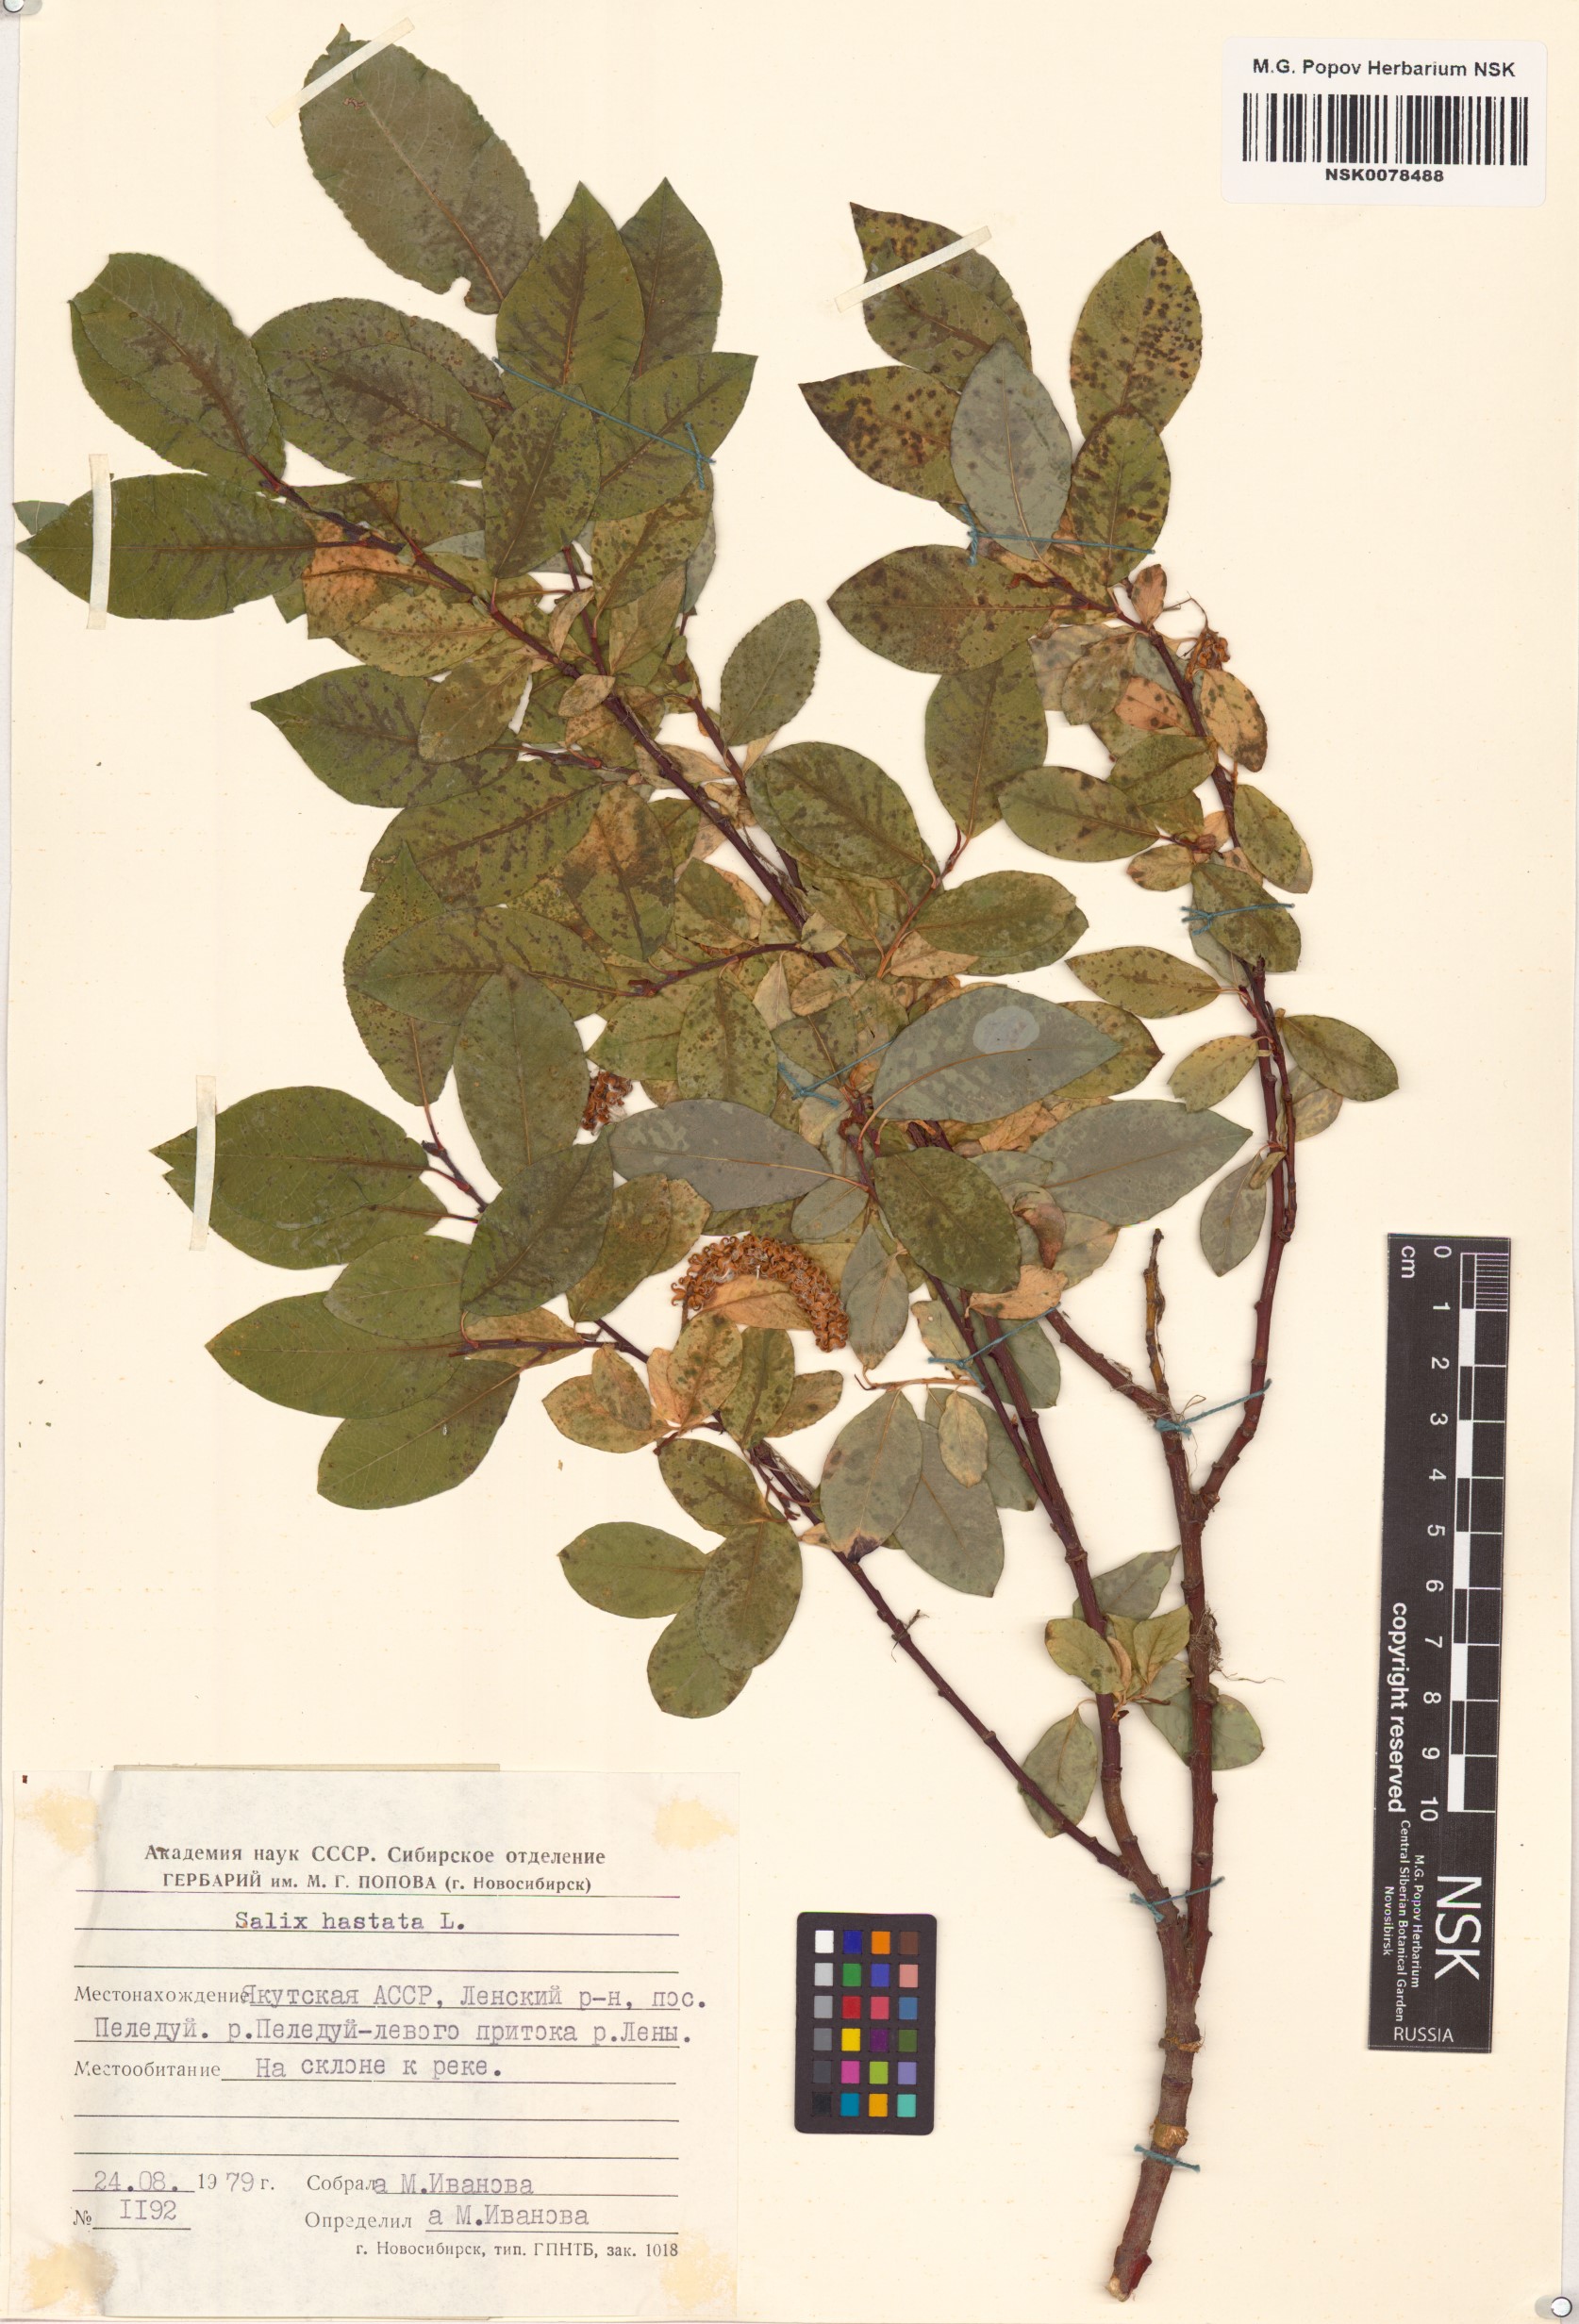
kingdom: Plantae
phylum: Tracheophyta
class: Magnoliopsida
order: Malpighiales
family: Salicaceae
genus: Salix
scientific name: Salix hastata
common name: Halberd willow
